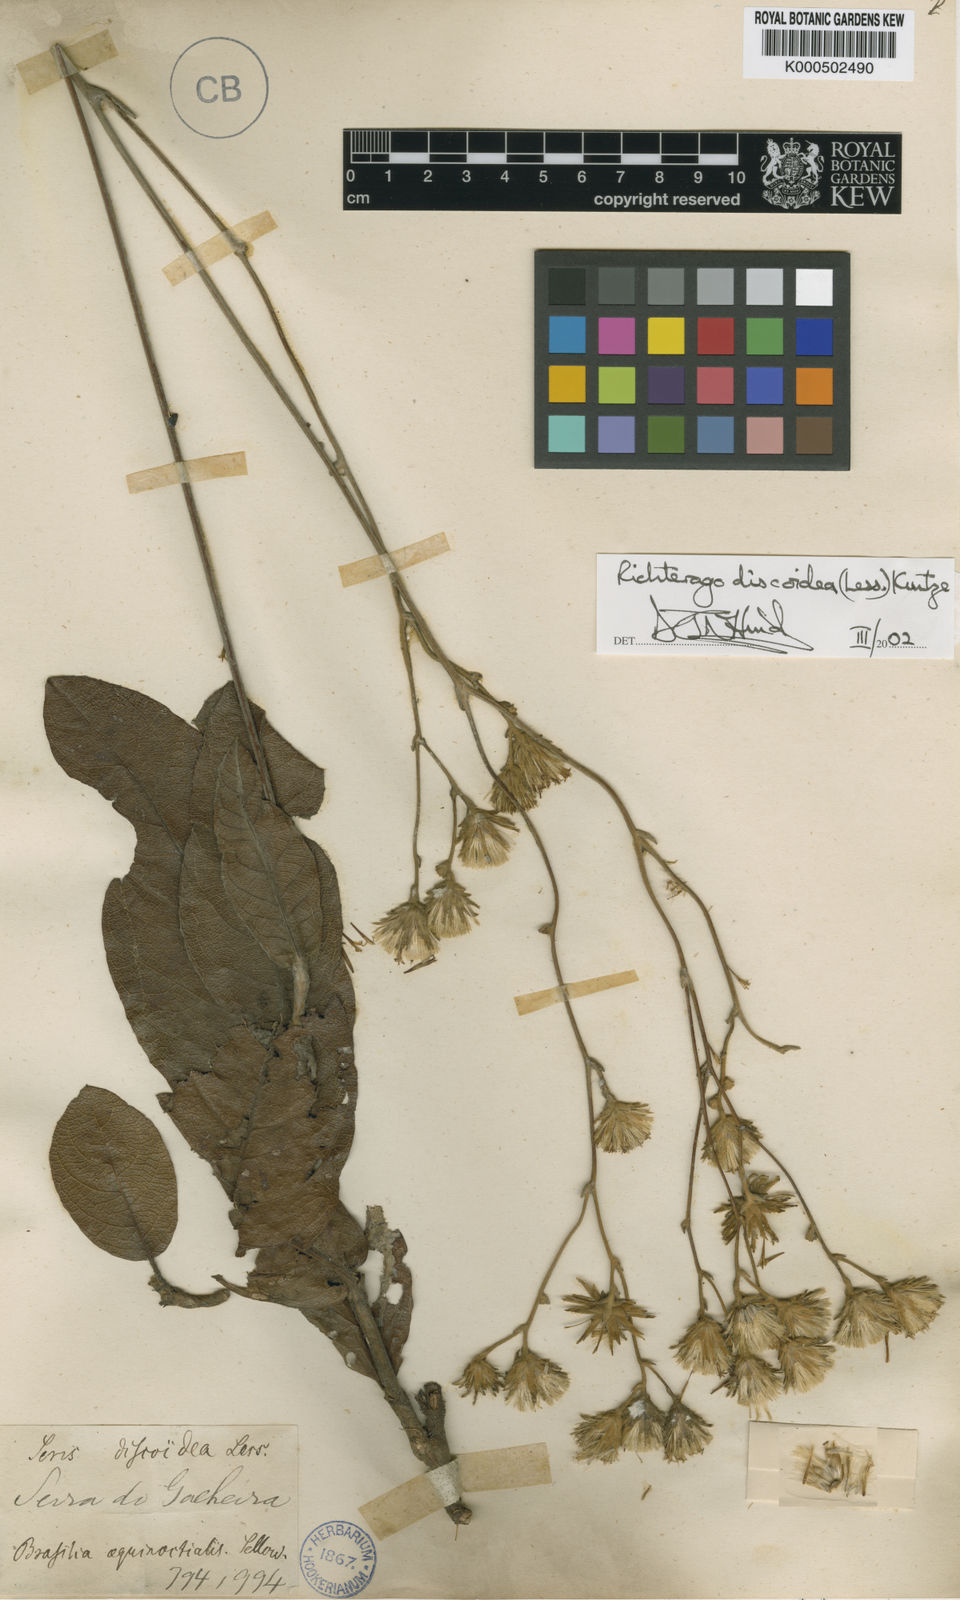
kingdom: Plantae
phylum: Tracheophyta
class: Magnoliopsida
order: Asterales
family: Asteraceae
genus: Richterago
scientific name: Richterago discoidea
